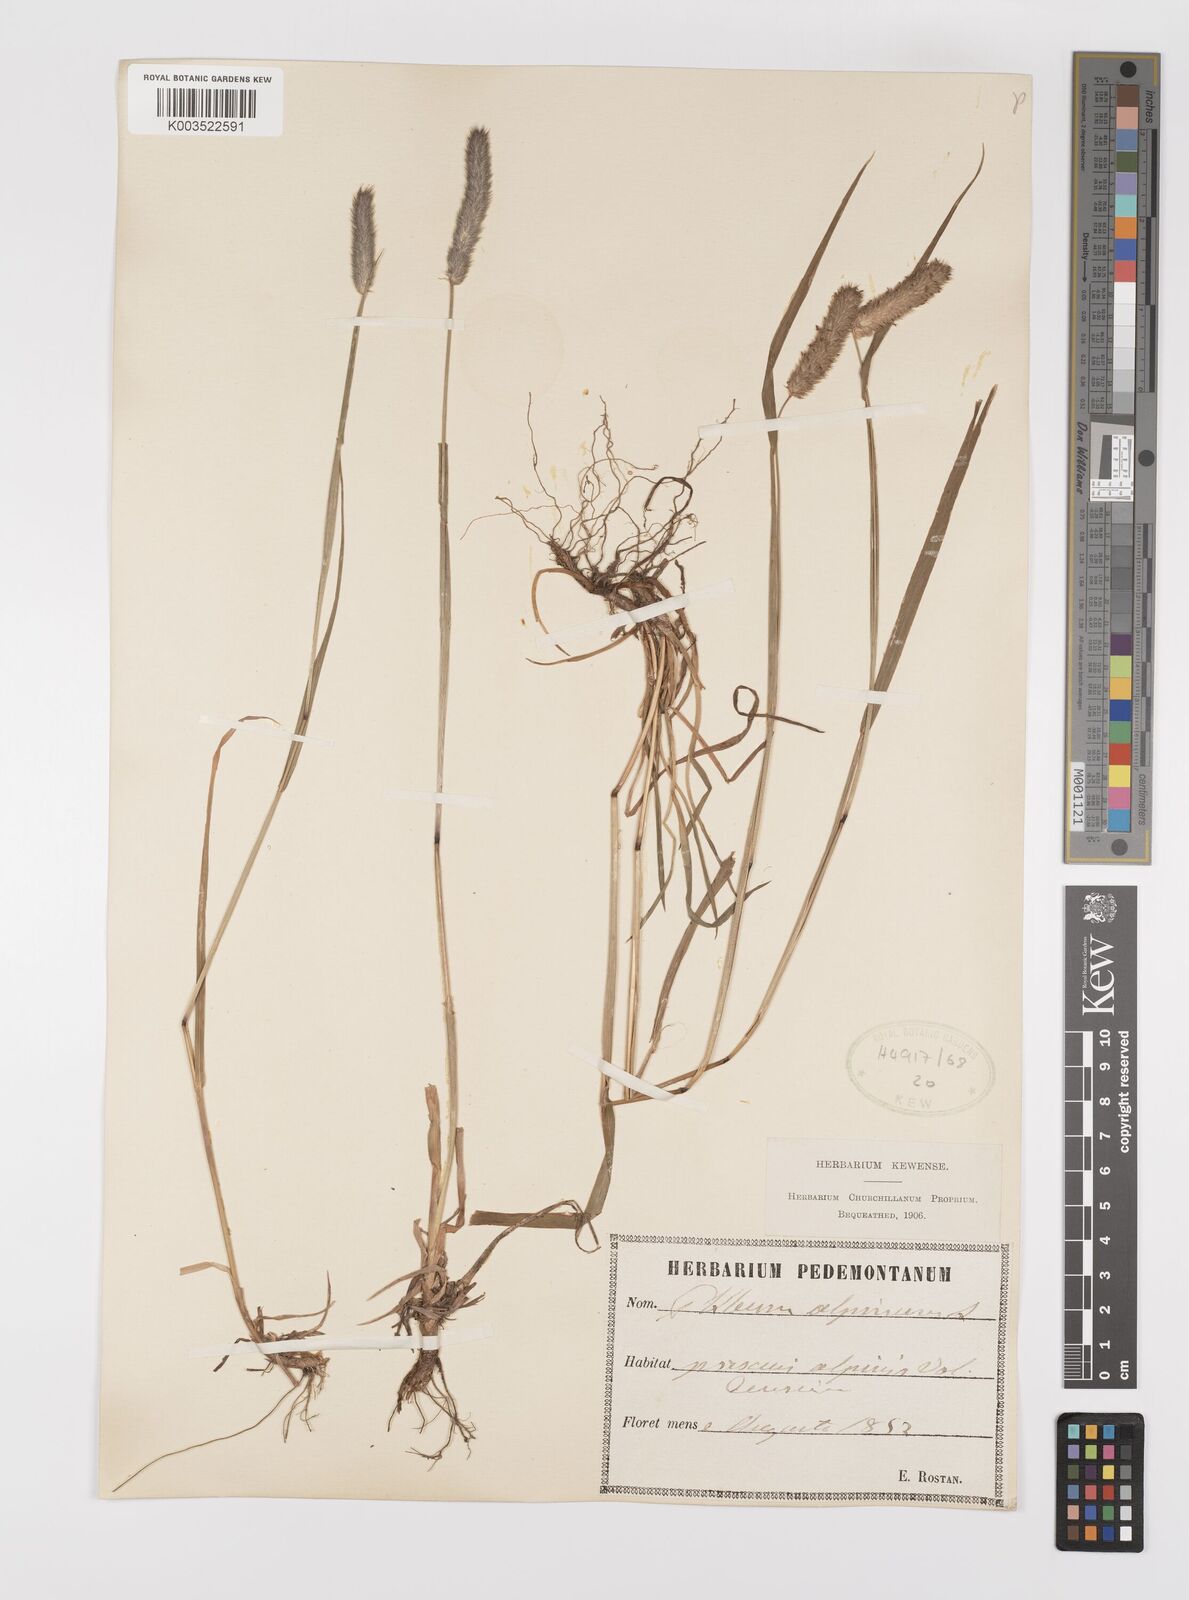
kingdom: Plantae
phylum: Tracheophyta
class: Liliopsida
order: Poales
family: Poaceae
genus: Phleum
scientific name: Phleum alpinum
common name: Alpine cat's-tail
